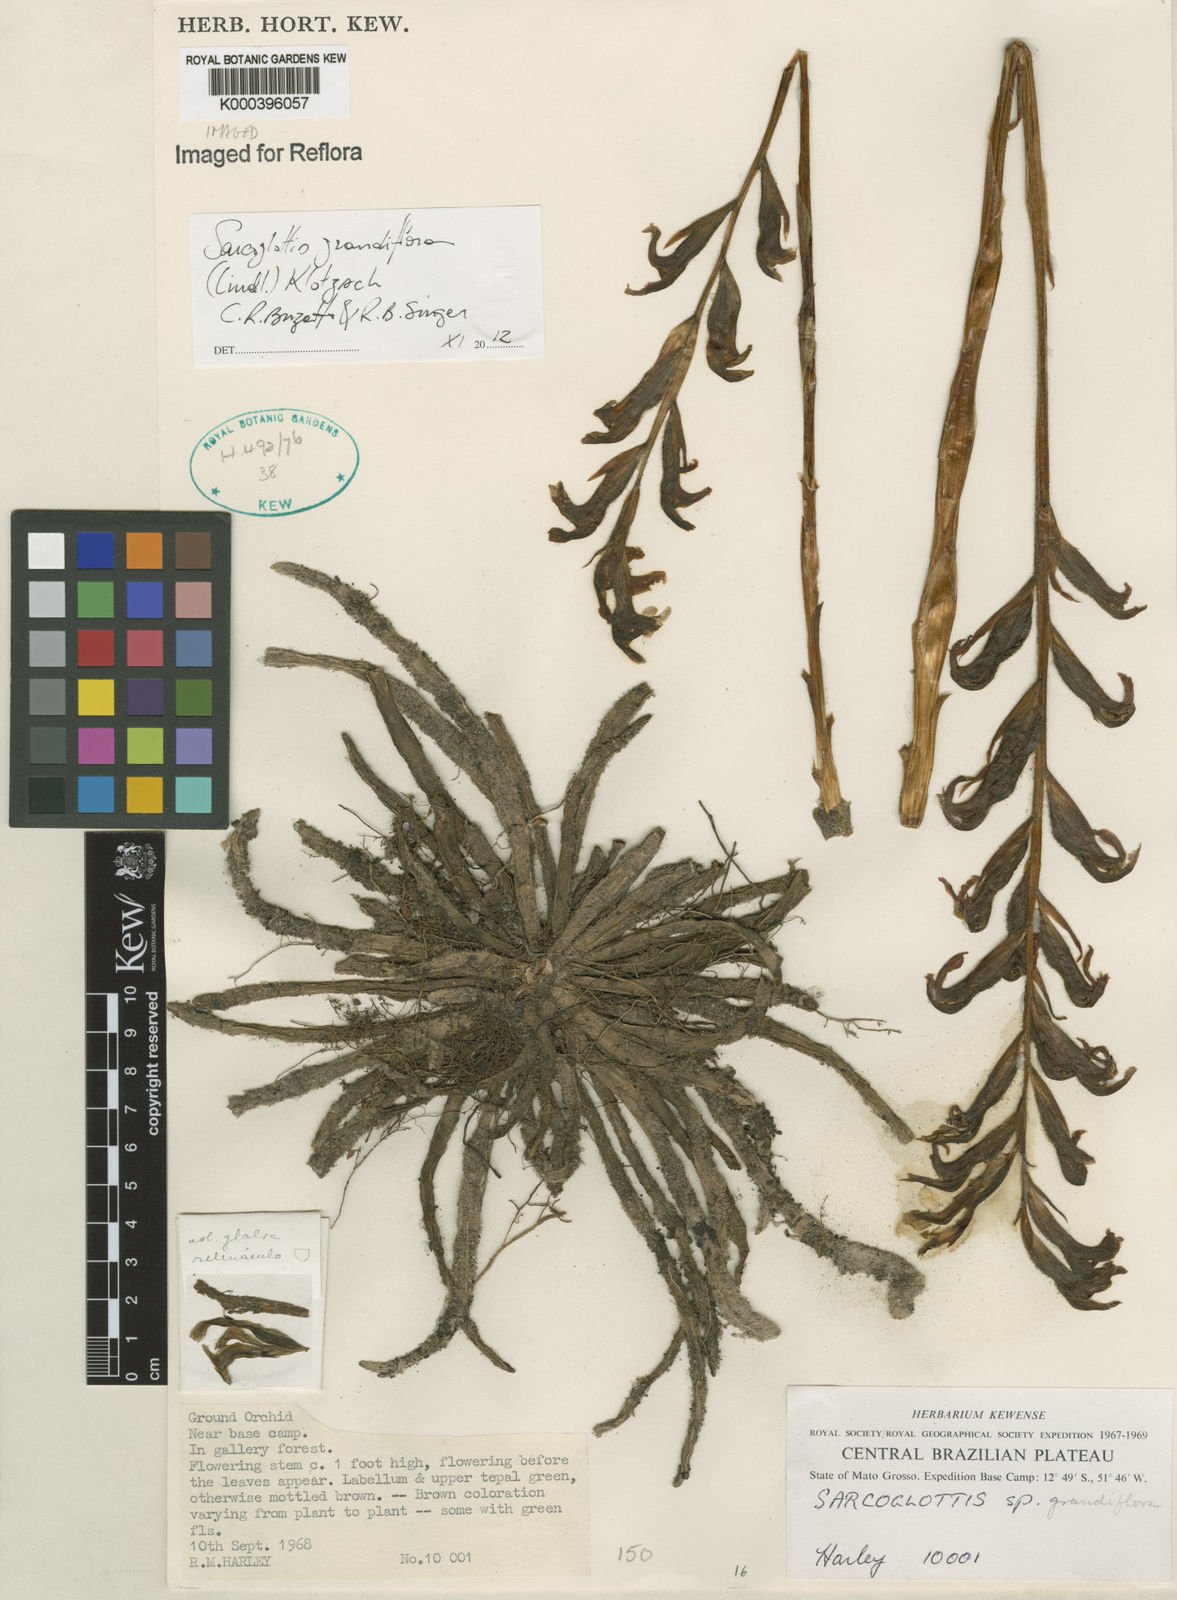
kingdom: Plantae
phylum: Tracheophyta
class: Liliopsida
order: Asparagales
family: Orchidaceae
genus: Sarcoglottis
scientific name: Sarcoglottis grandiflora
